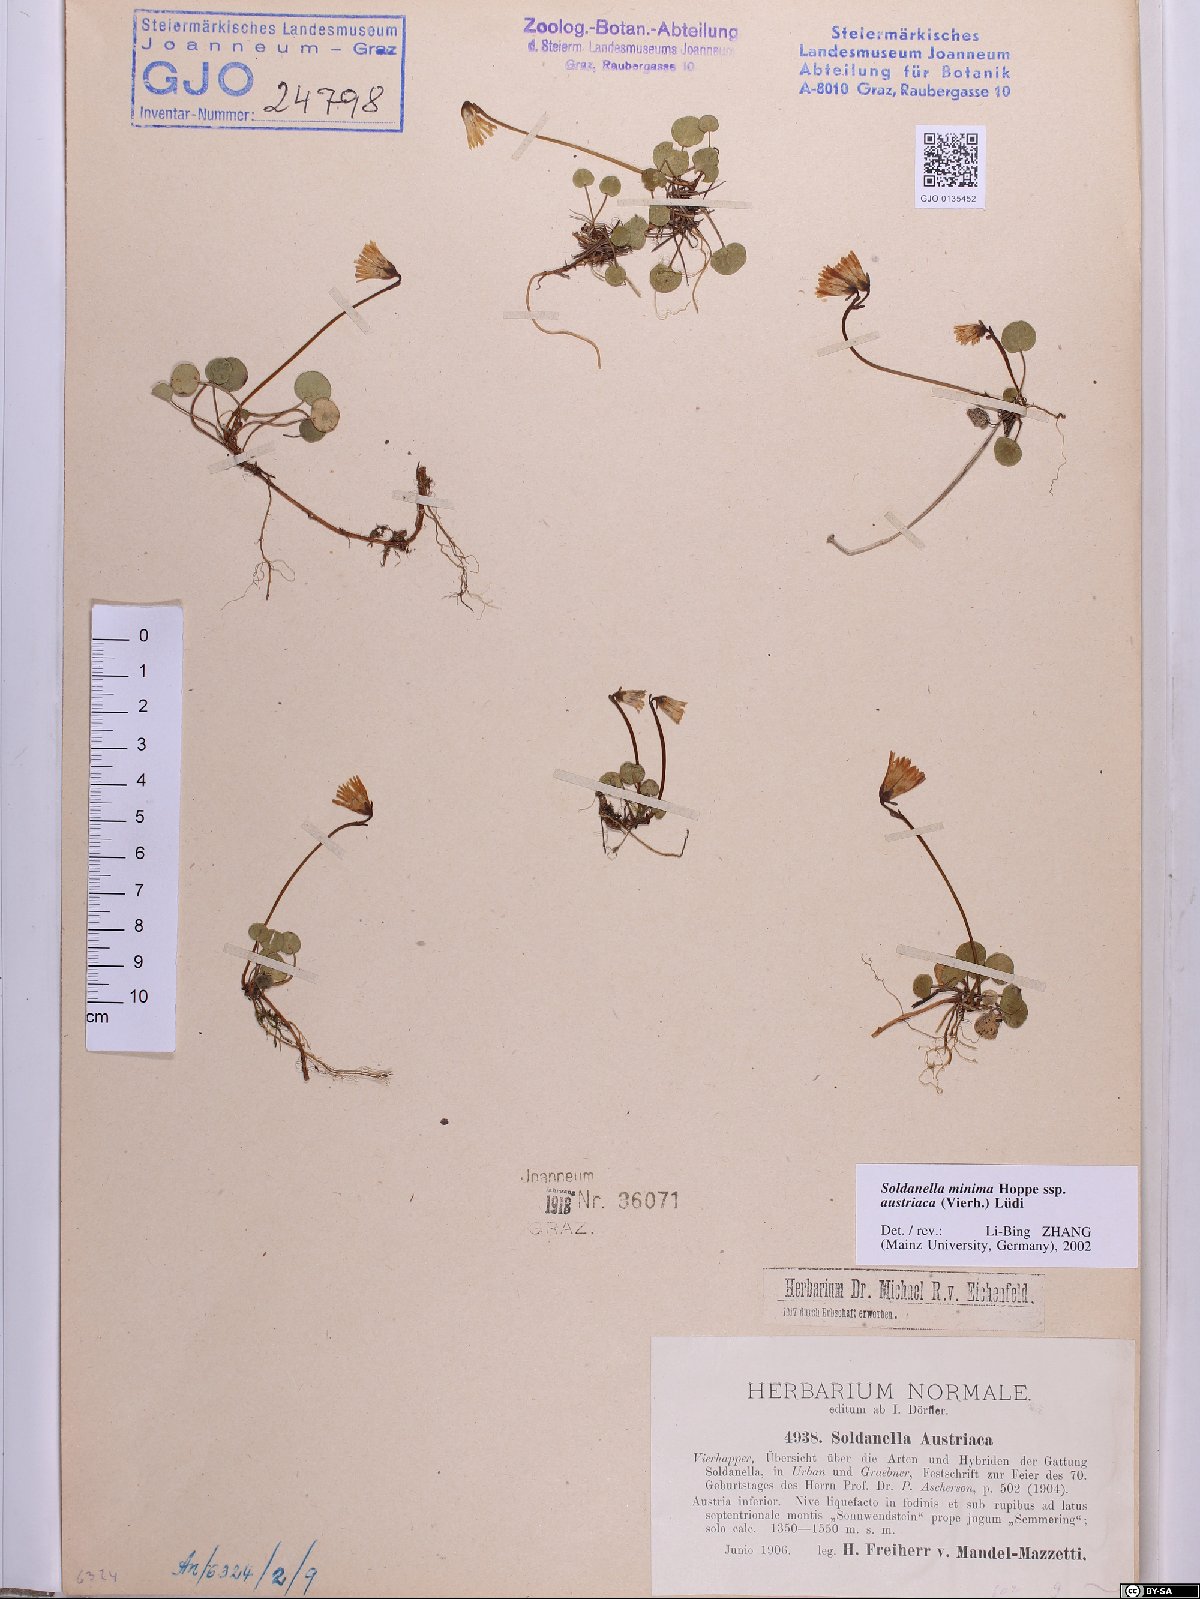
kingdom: Plantae
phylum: Tracheophyta
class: Magnoliopsida
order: Ericales
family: Primulaceae
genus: Soldanella
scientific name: Soldanella austriaca
